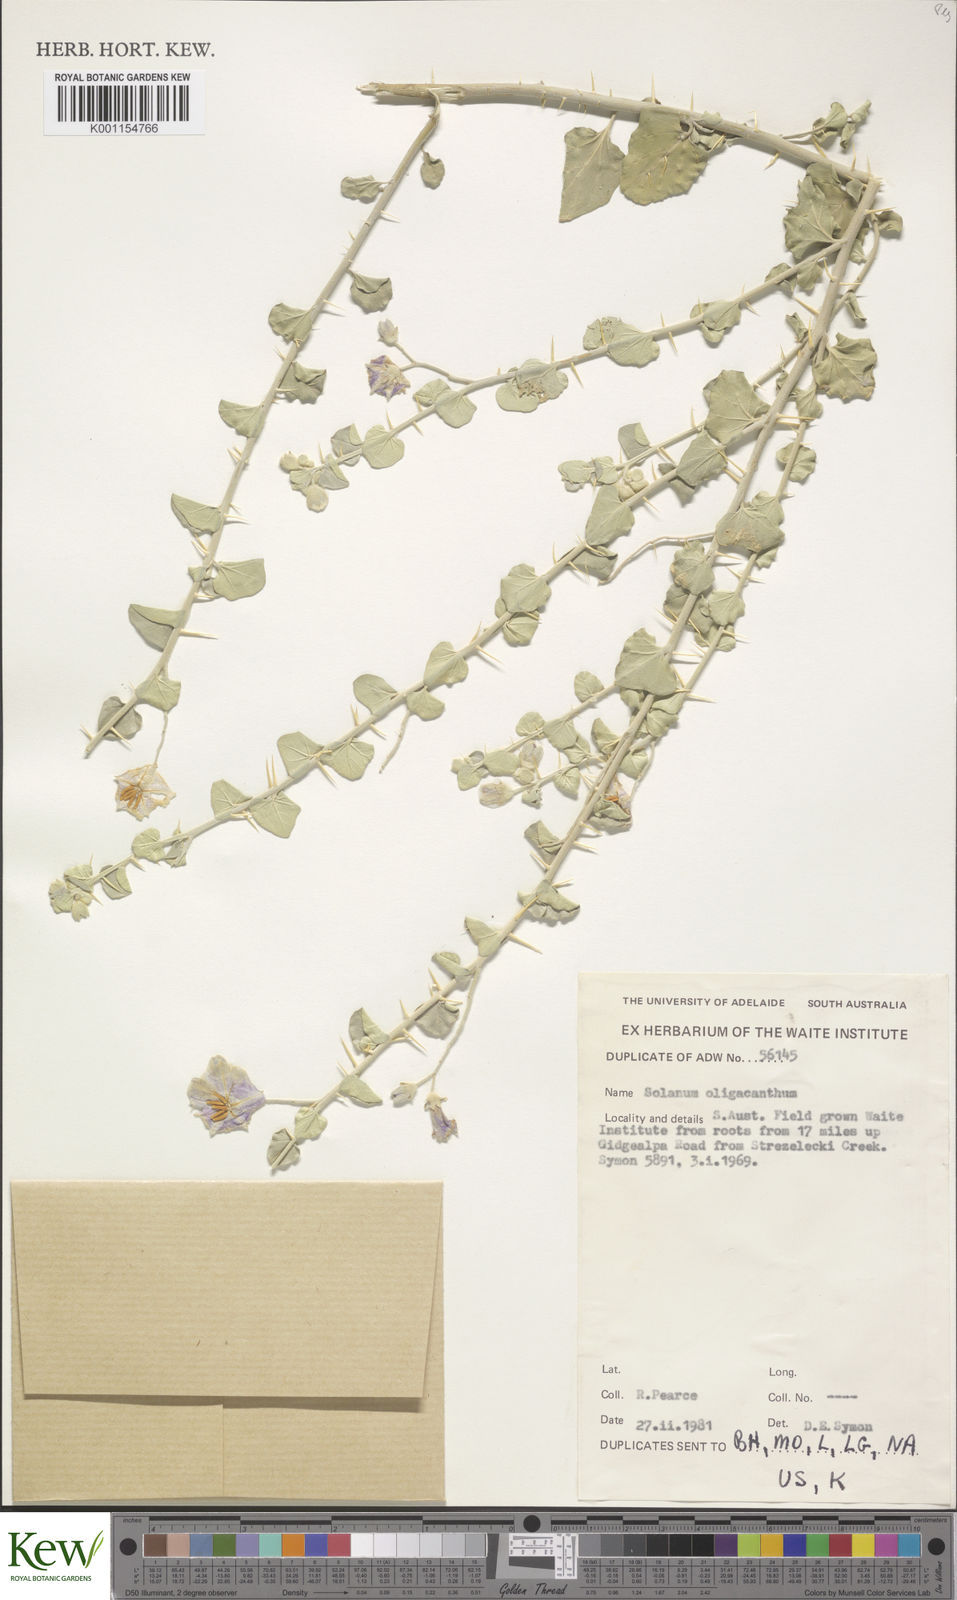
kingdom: Plantae
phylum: Tracheophyta
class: Magnoliopsida
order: Solanales
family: Solanaceae
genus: Solanum
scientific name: Solanum oligacanthum
